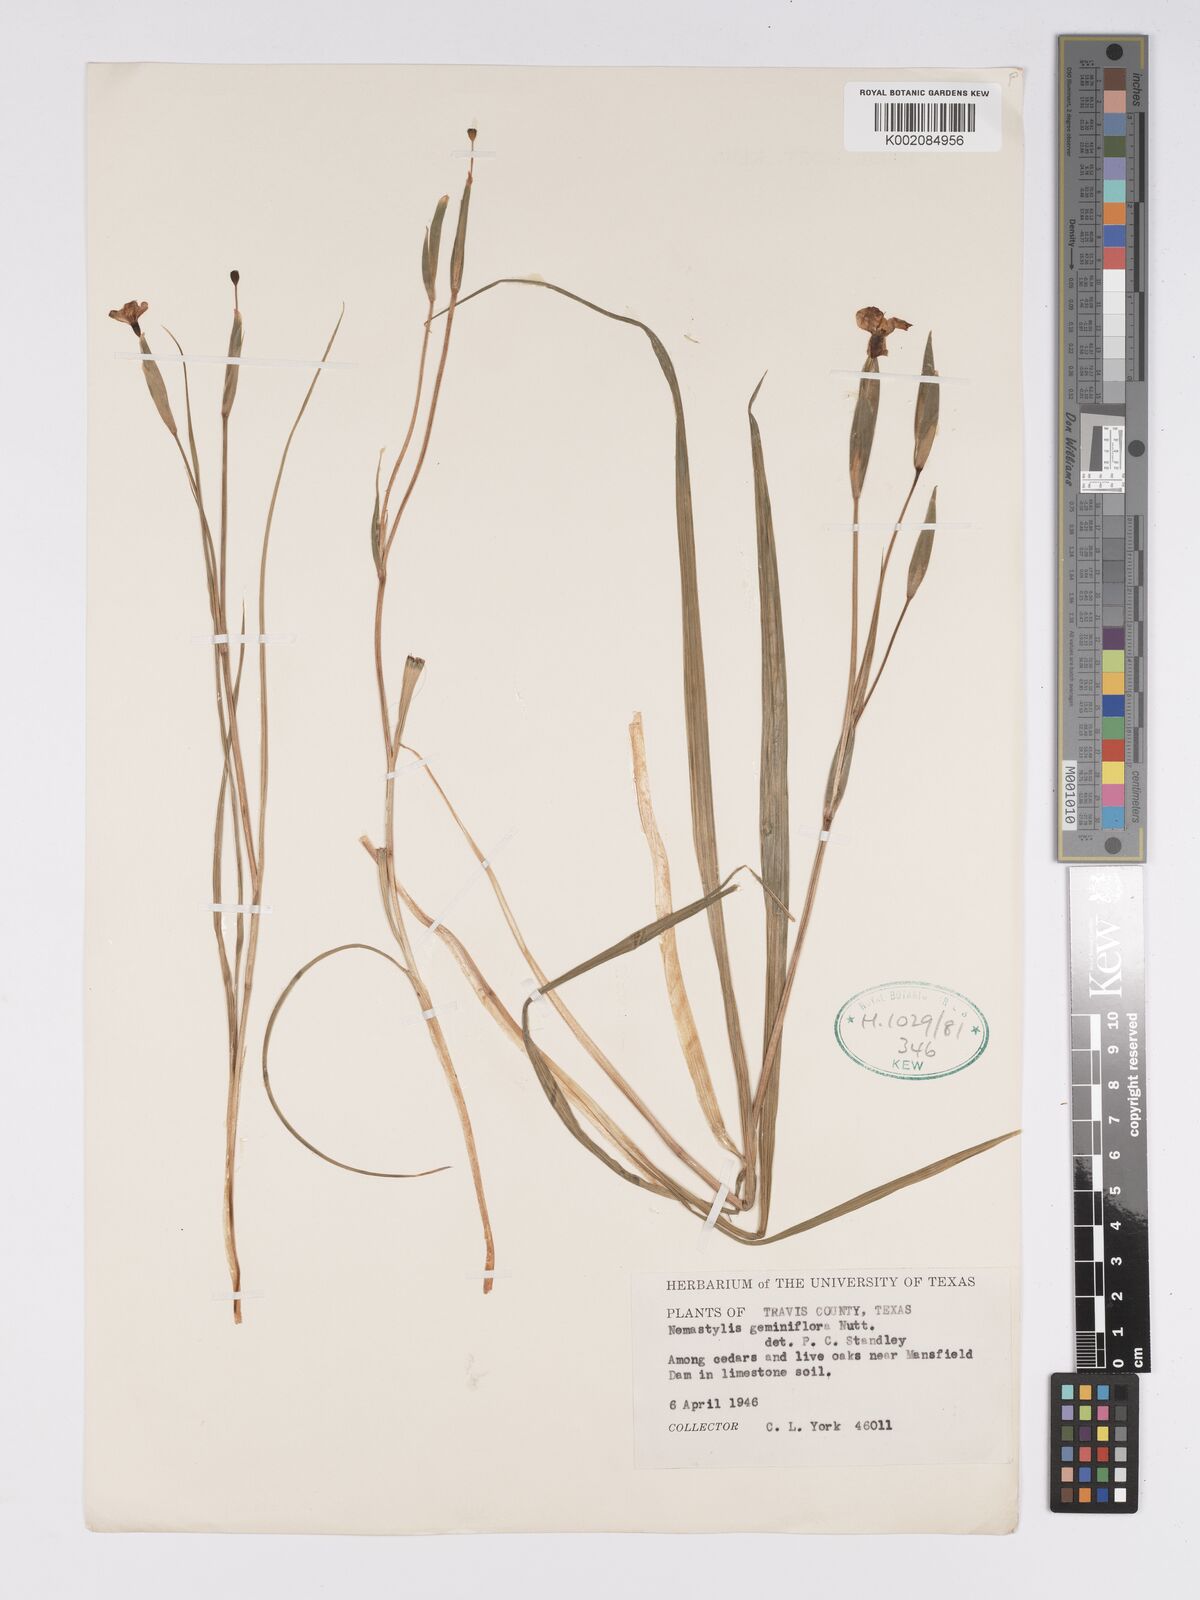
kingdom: Plantae
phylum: Tracheophyta
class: Liliopsida
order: Asparagales
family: Iridaceae
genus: Nemastylis
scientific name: Nemastylis geminiflora
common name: Prairie celestial
